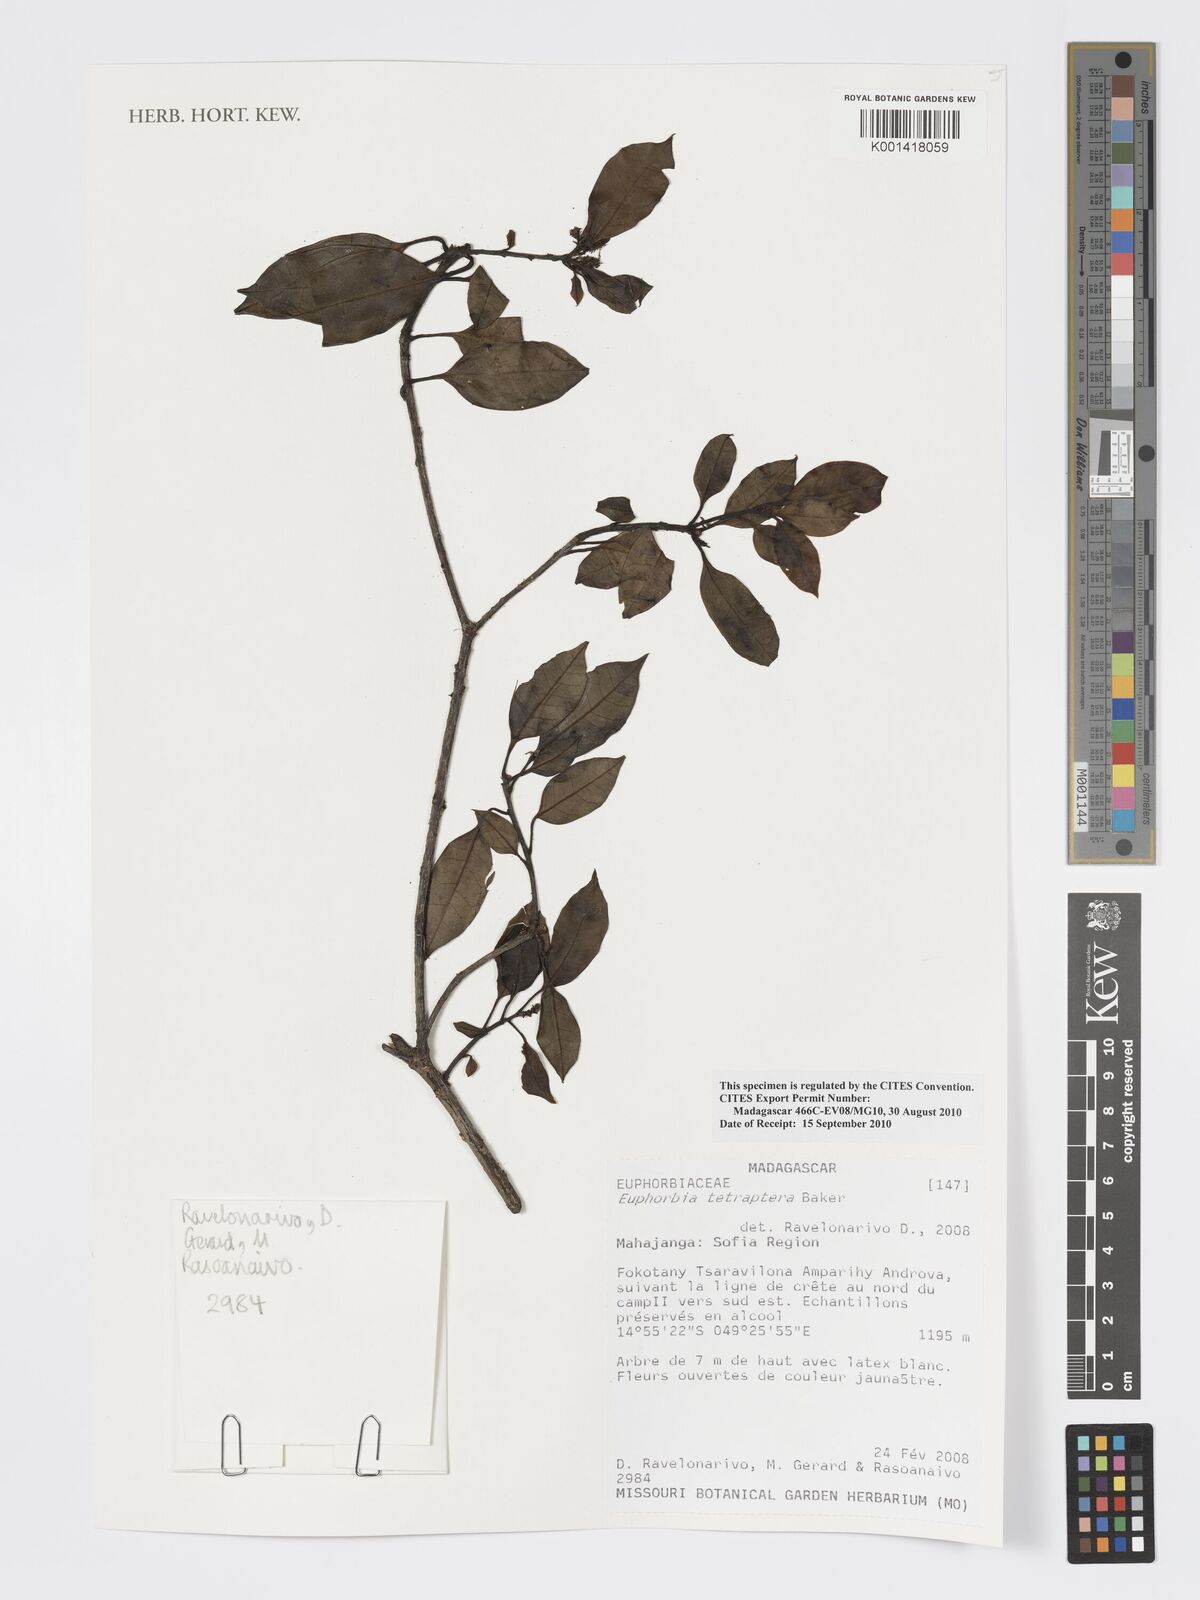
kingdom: Plantae
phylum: Tracheophyta
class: Magnoliopsida
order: Malpighiales
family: Euphorbiaceae
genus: Euphorbia
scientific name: Euphorbia tetraptera
